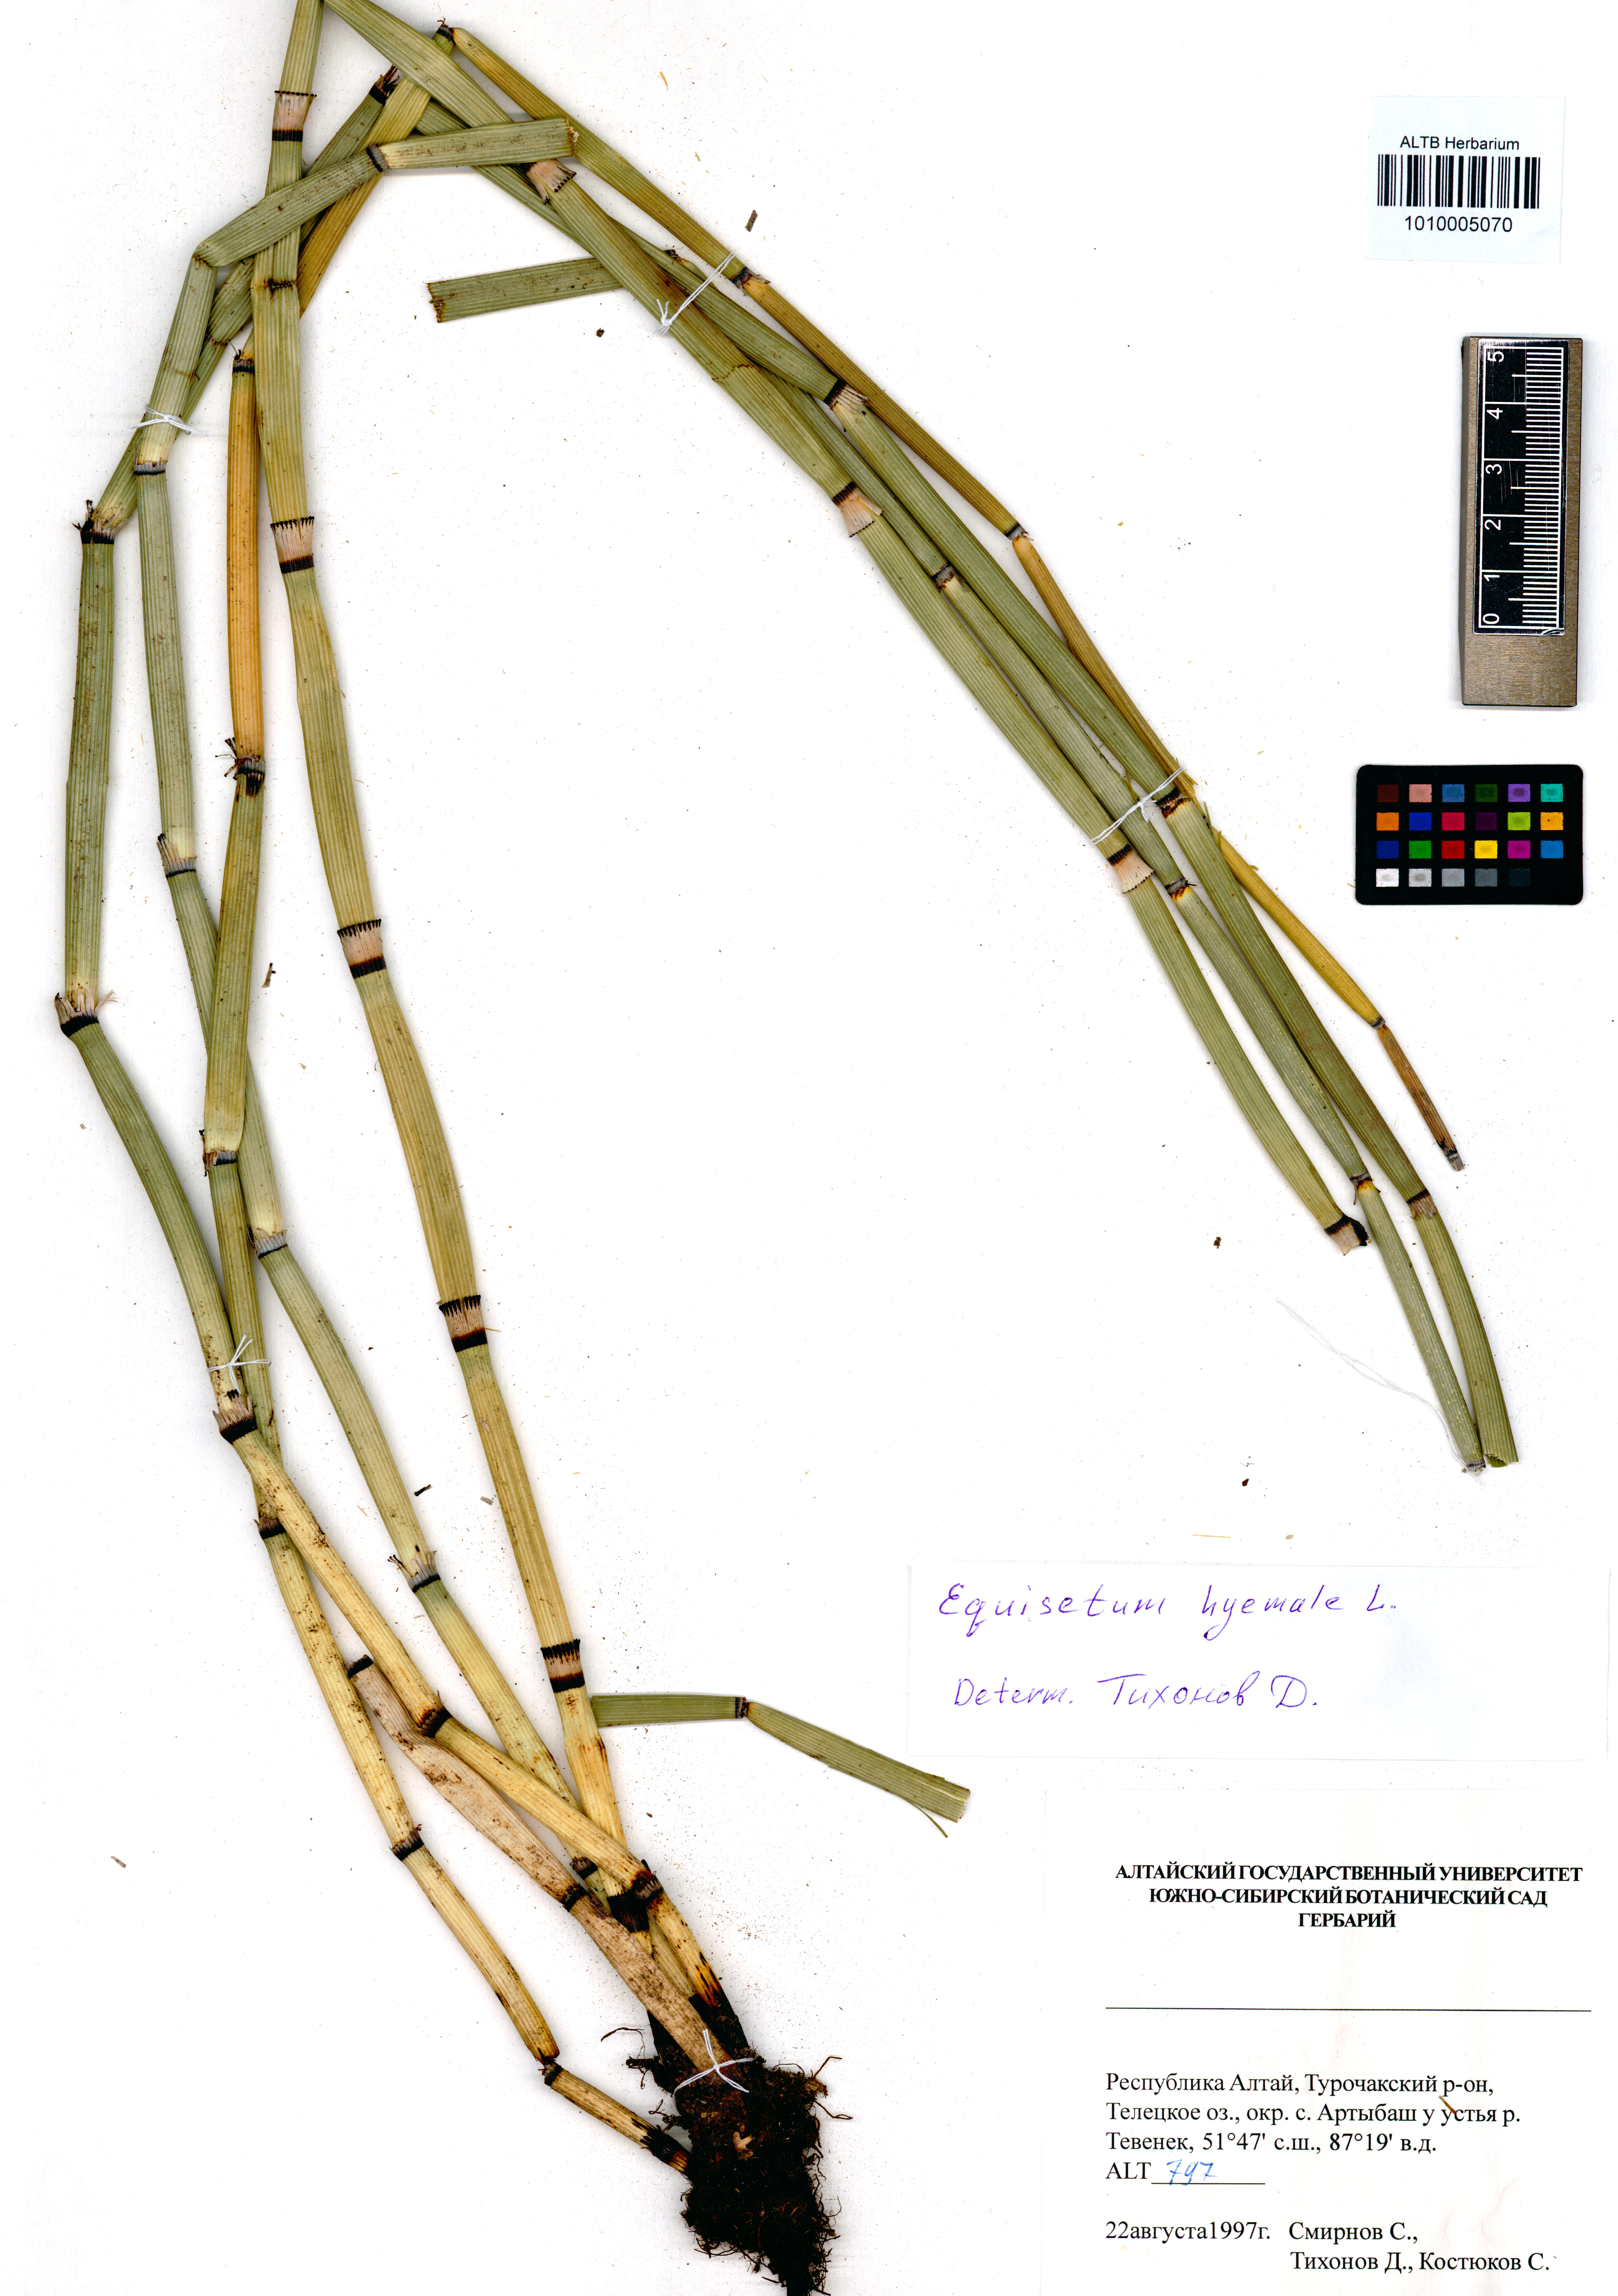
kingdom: Plantae
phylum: Tracheophyta
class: Polypodiopsida
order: Equisetales
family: Equisetaceae
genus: Equisetum
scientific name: Equisetum hyemale
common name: Rough horsetail
